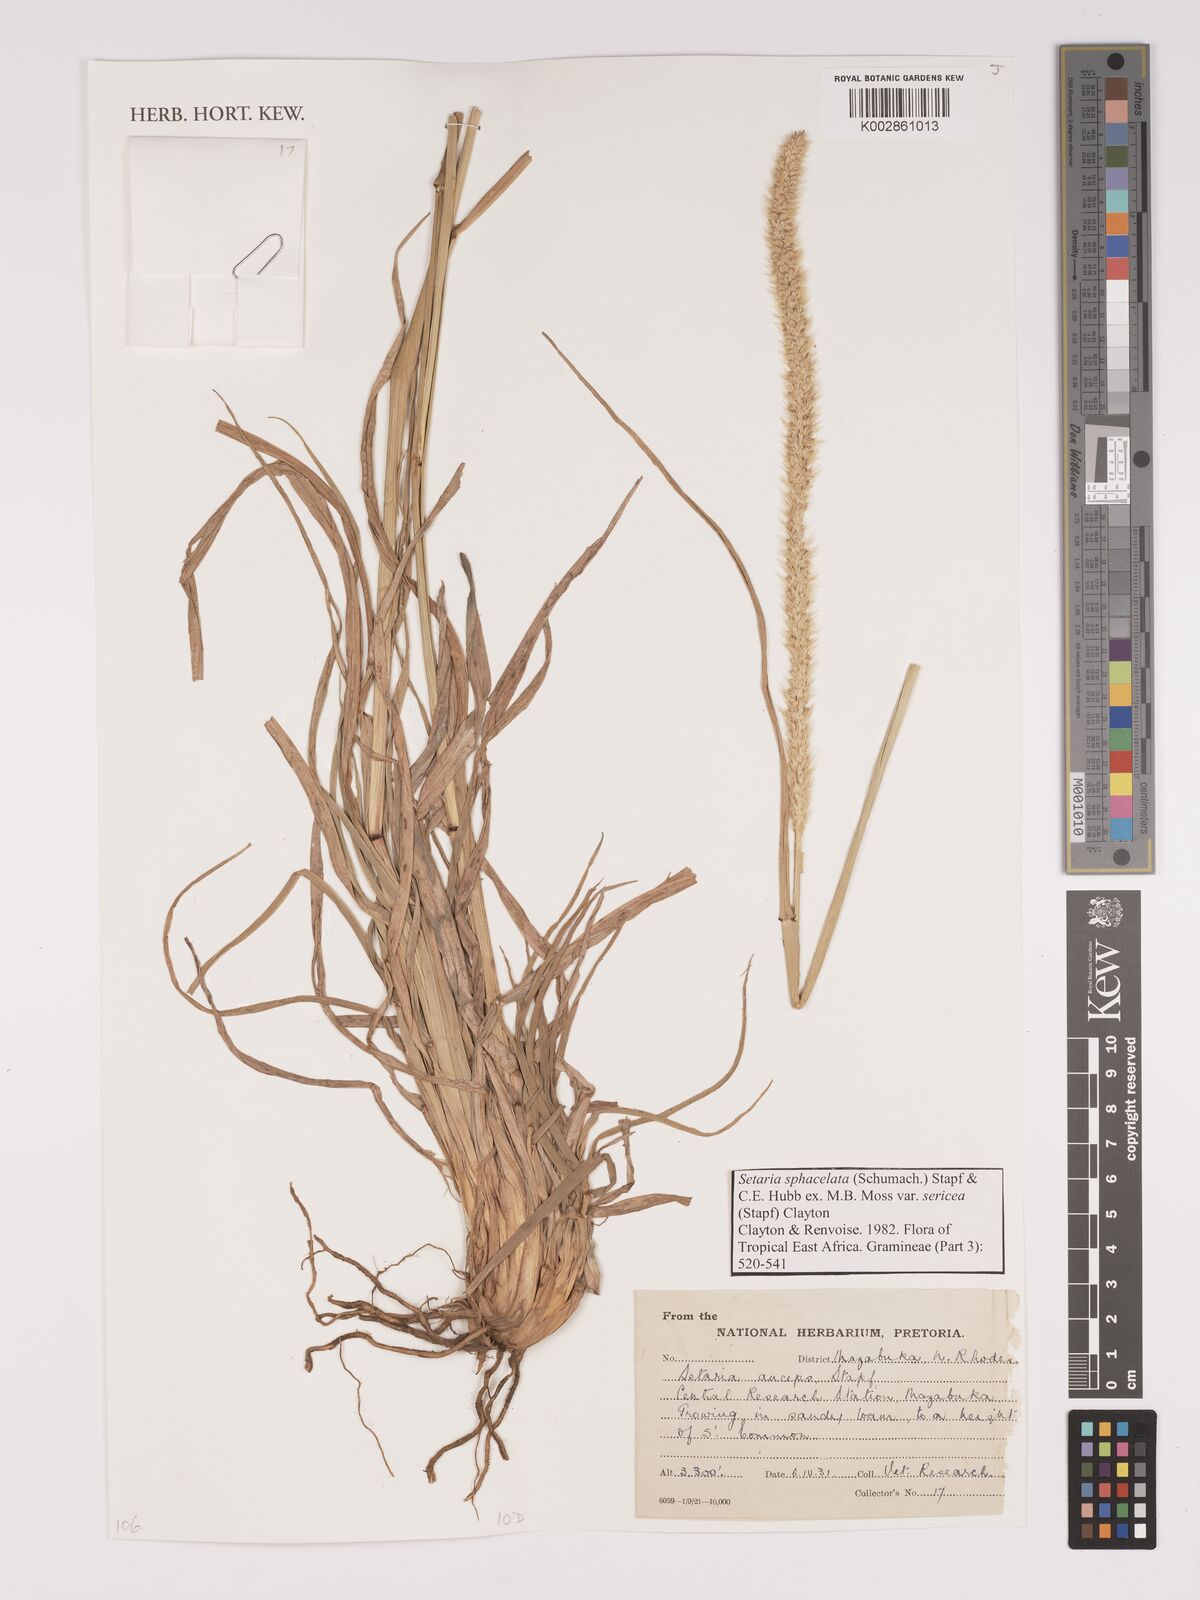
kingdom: Plantae
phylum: Tracheophyta
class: Liliopsida
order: Poales
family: Poaceae
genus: Setaria
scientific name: Setaria sphacelata
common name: African bristlegrass
